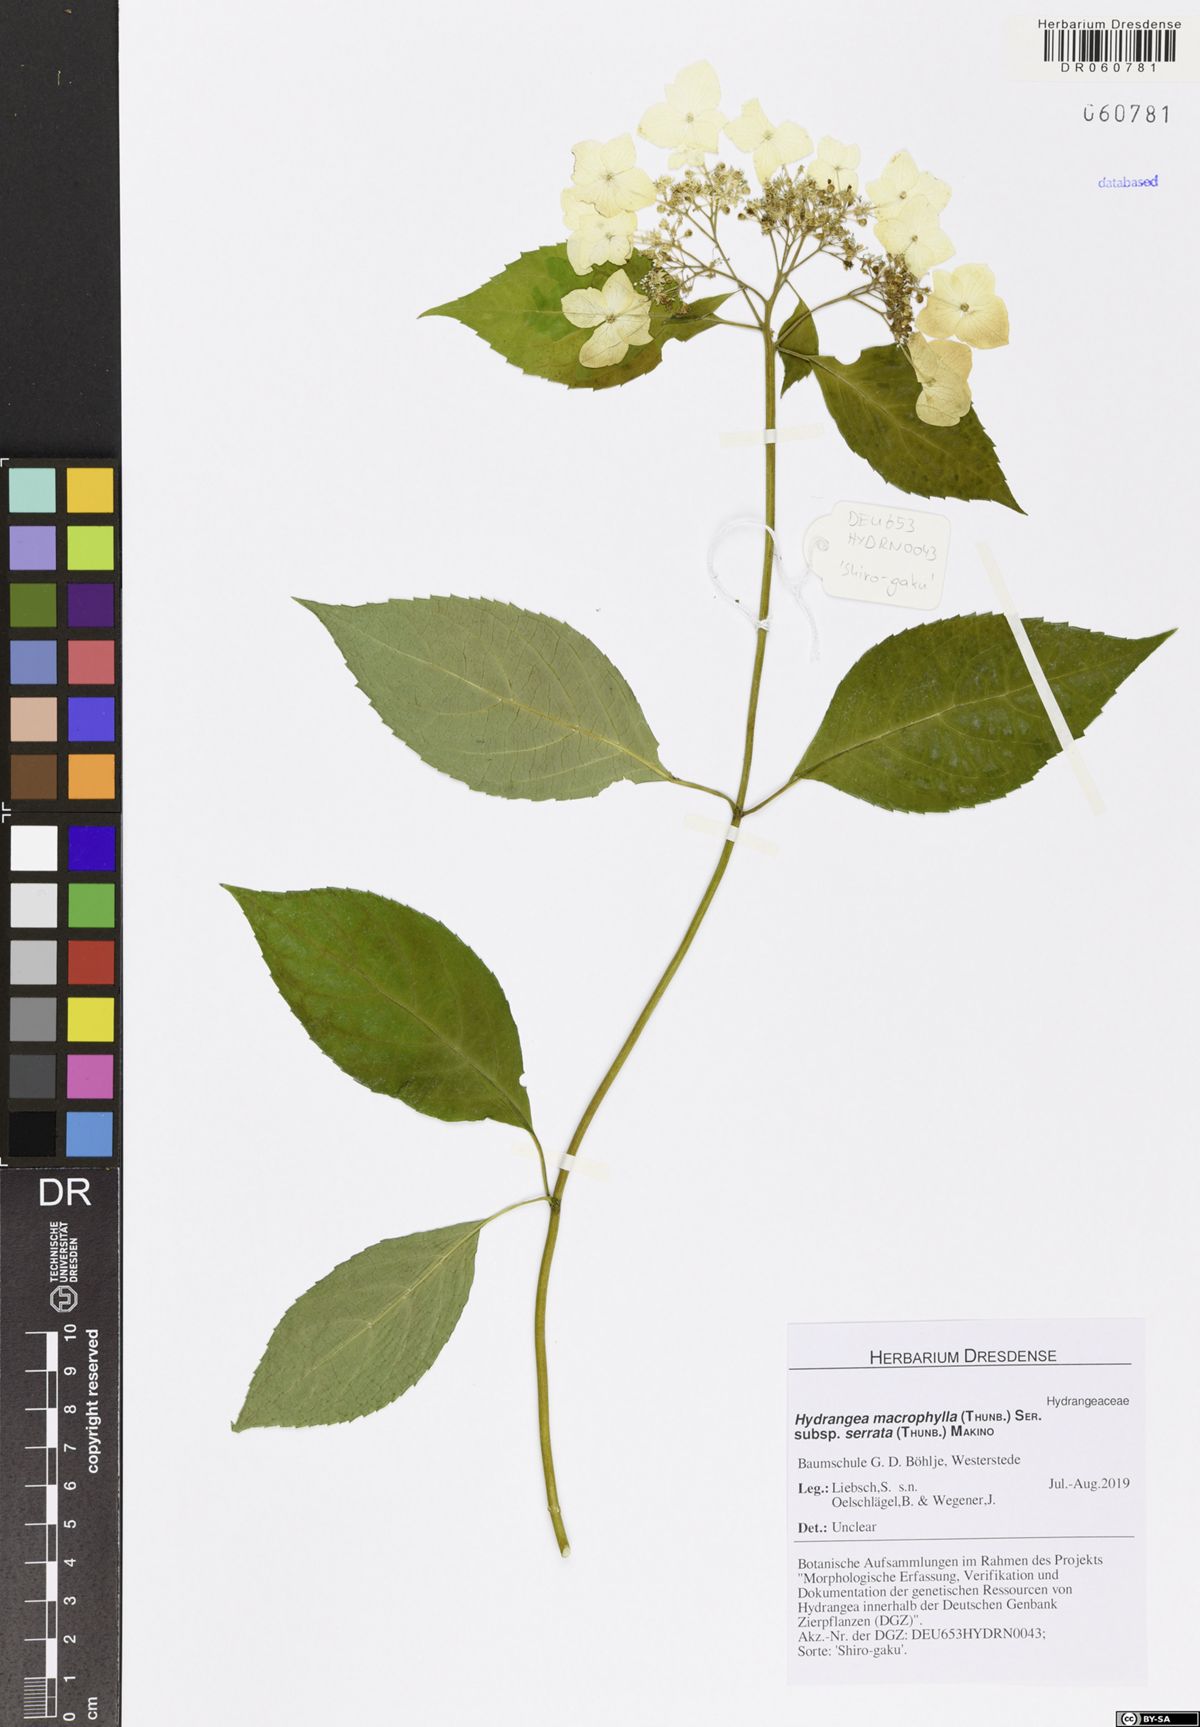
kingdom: Plantae
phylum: Tracheophyta
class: Magnoliopsida
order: Cornales
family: Hydrangeaceae
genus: Hydrangea
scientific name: Hydrangea serrata
